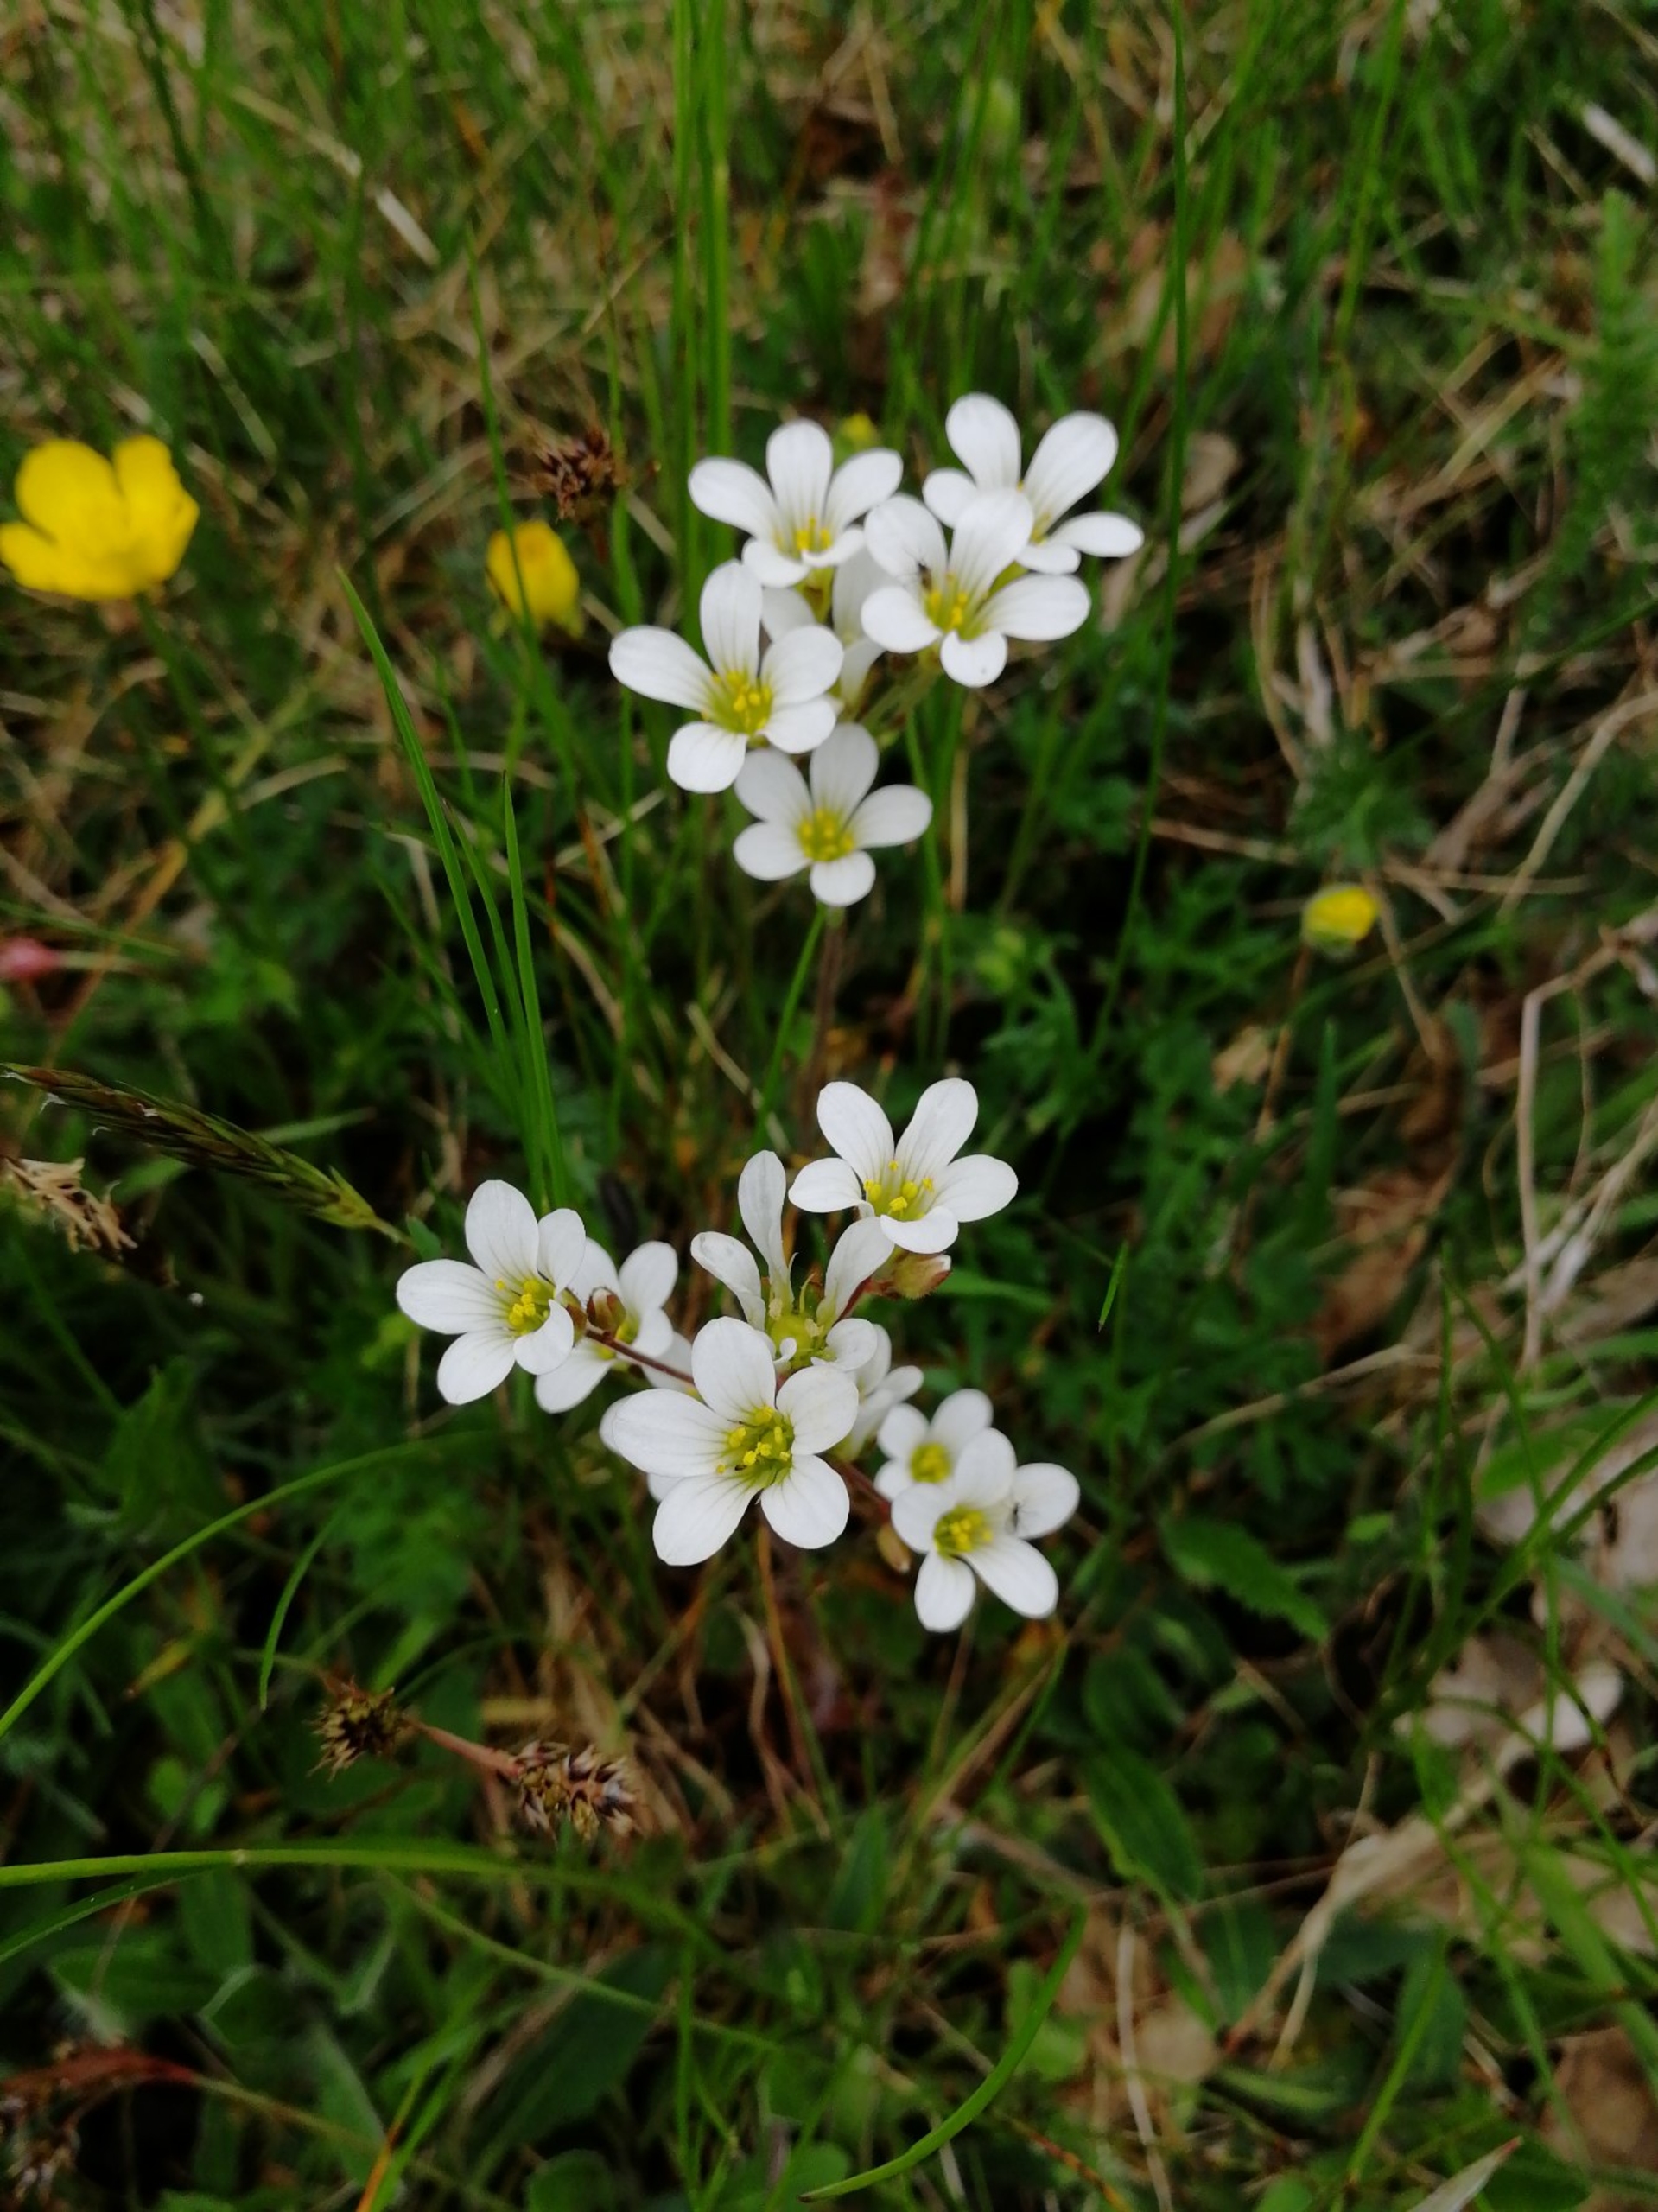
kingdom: Plantae
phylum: Tracheophyta
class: Magnoliopsida
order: Saxifragales
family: Saxifragaceae
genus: Saxifraga
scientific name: Saxifraga granulata
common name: Kornet stenbræk
